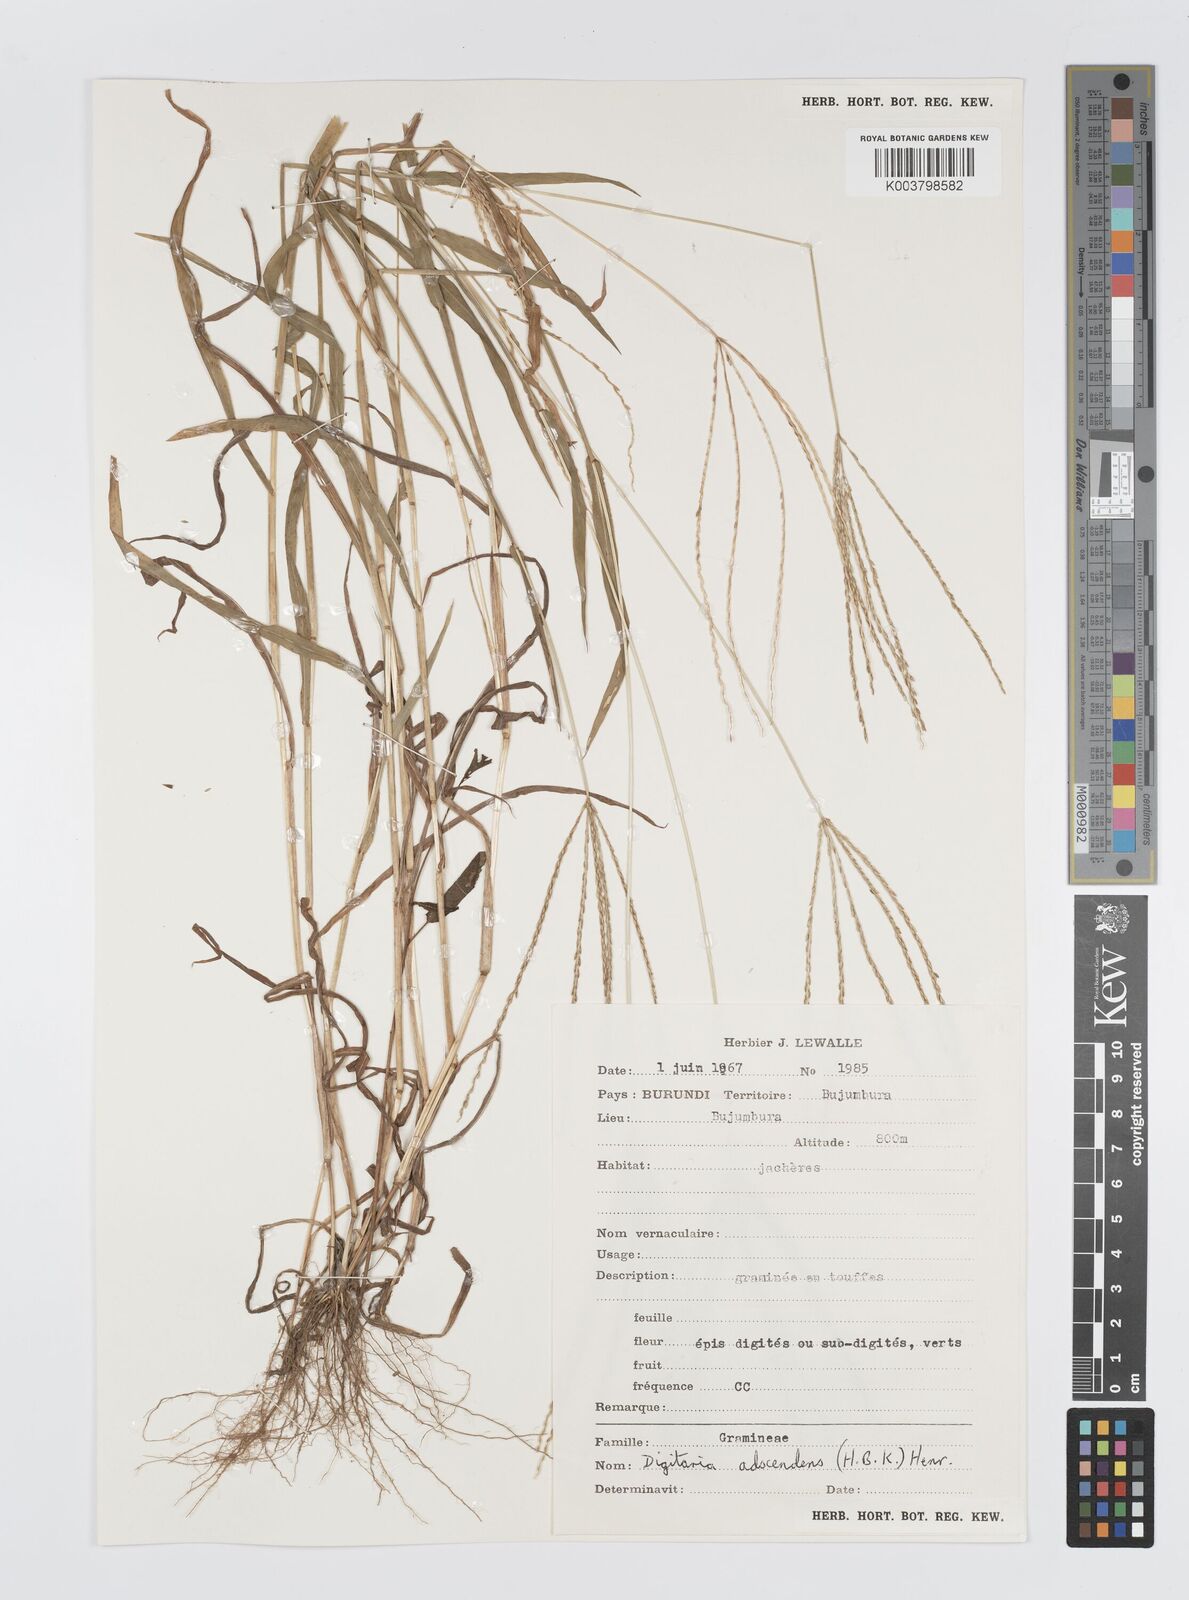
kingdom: Plantae
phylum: Tracheophyta
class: Liliopsida
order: Poales
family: Poaceae
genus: Digitaria
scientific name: Digitaria nuda
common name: Naked crabgrass
